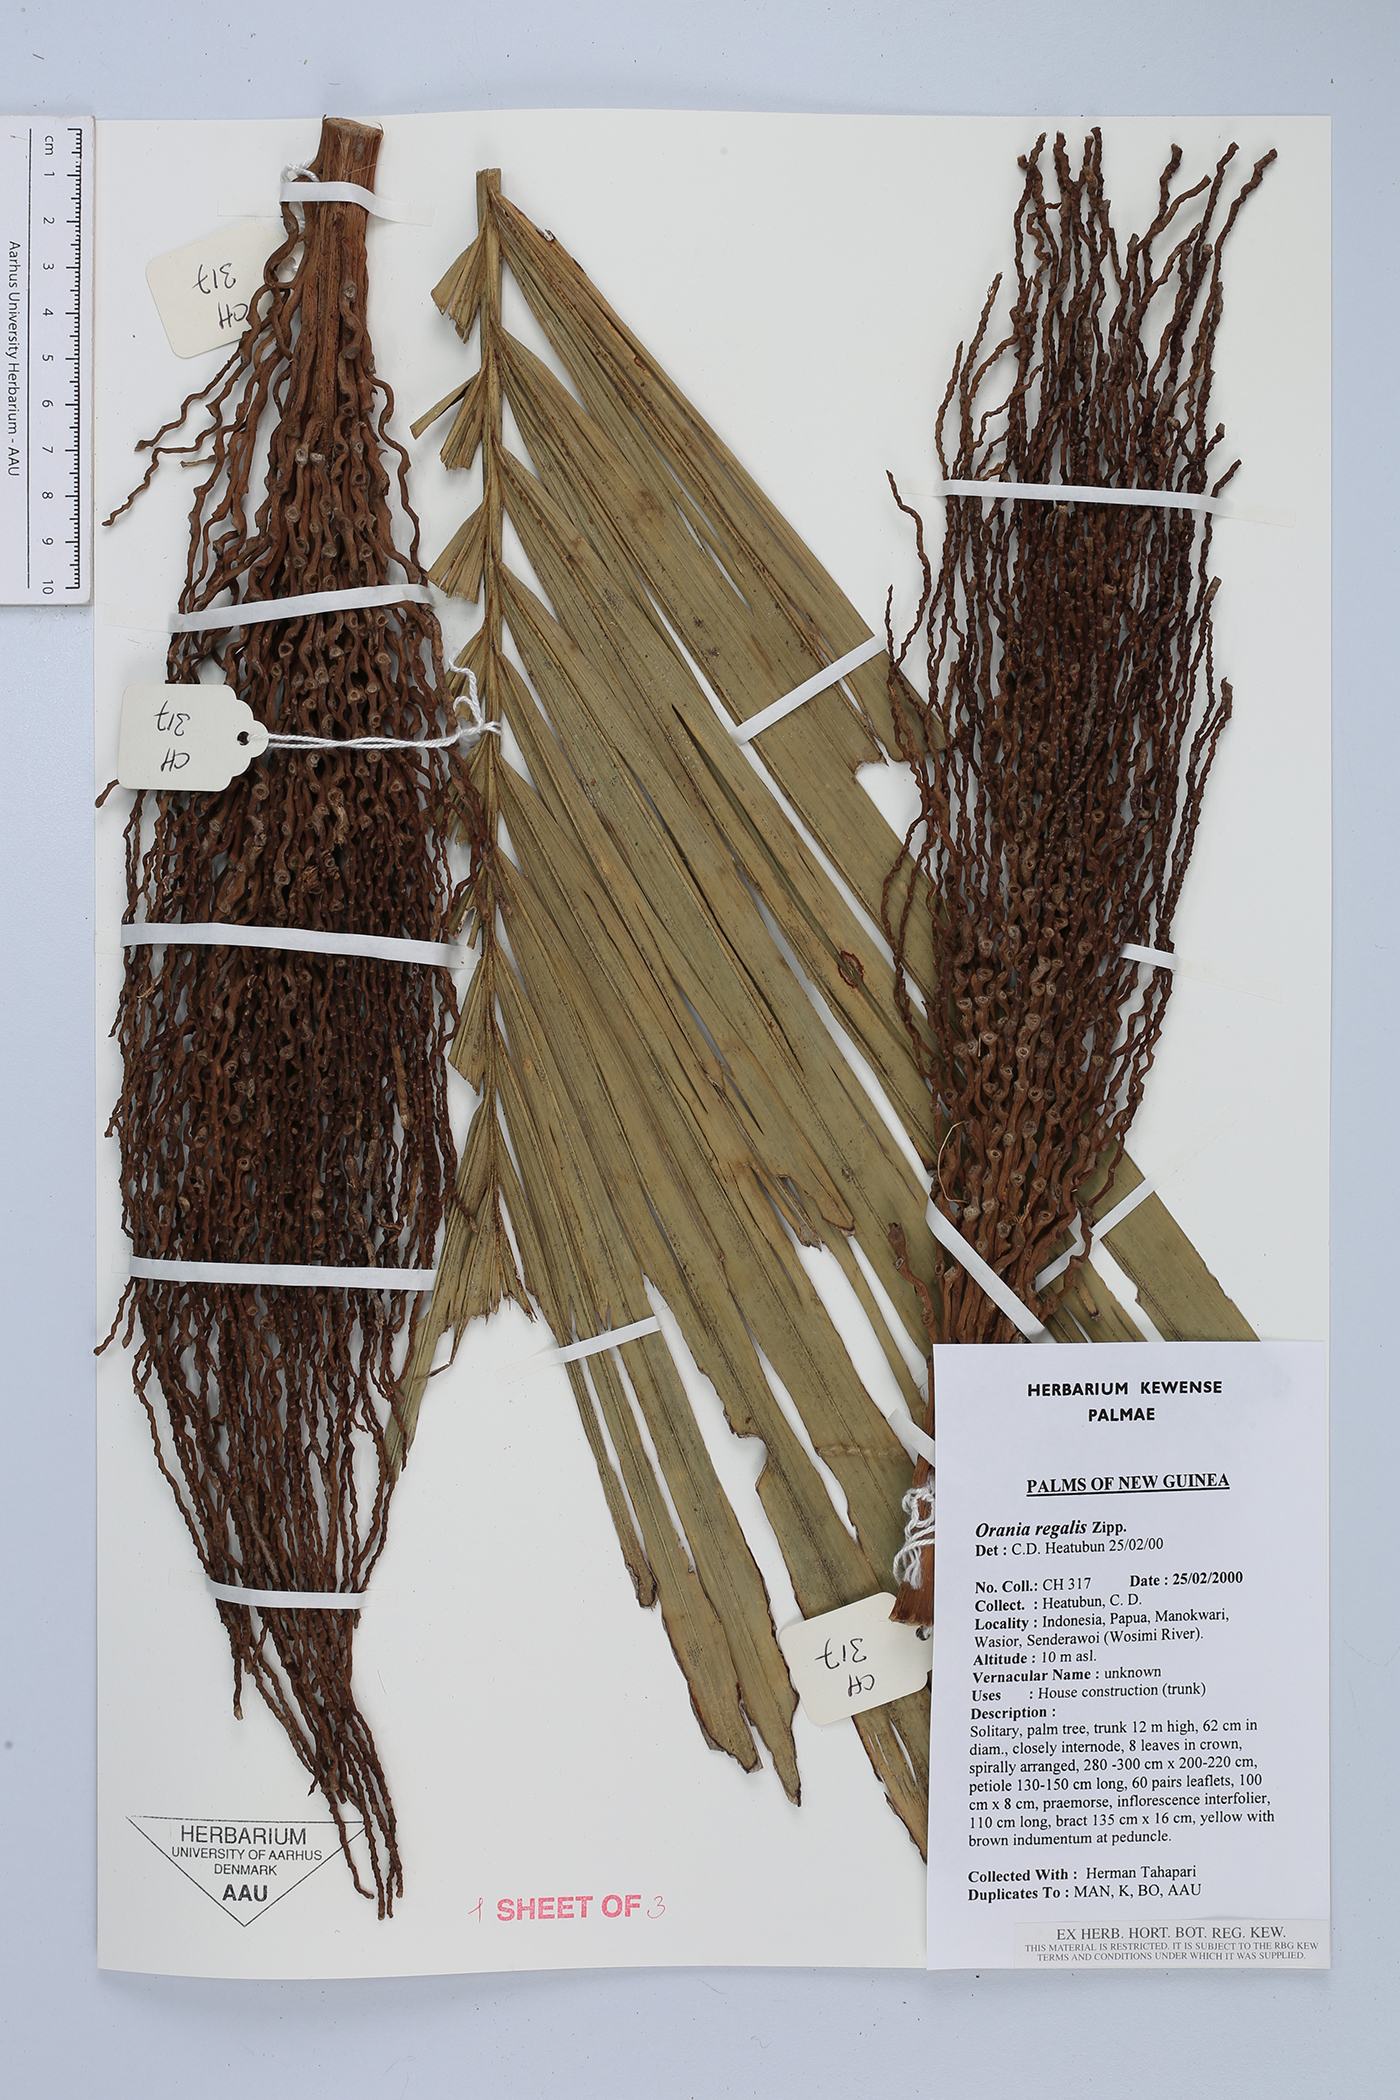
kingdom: Plantae
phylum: Tracheophyta
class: Liliopsida
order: Arecales
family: Arecaceae
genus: Orania
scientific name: Orania regalis
